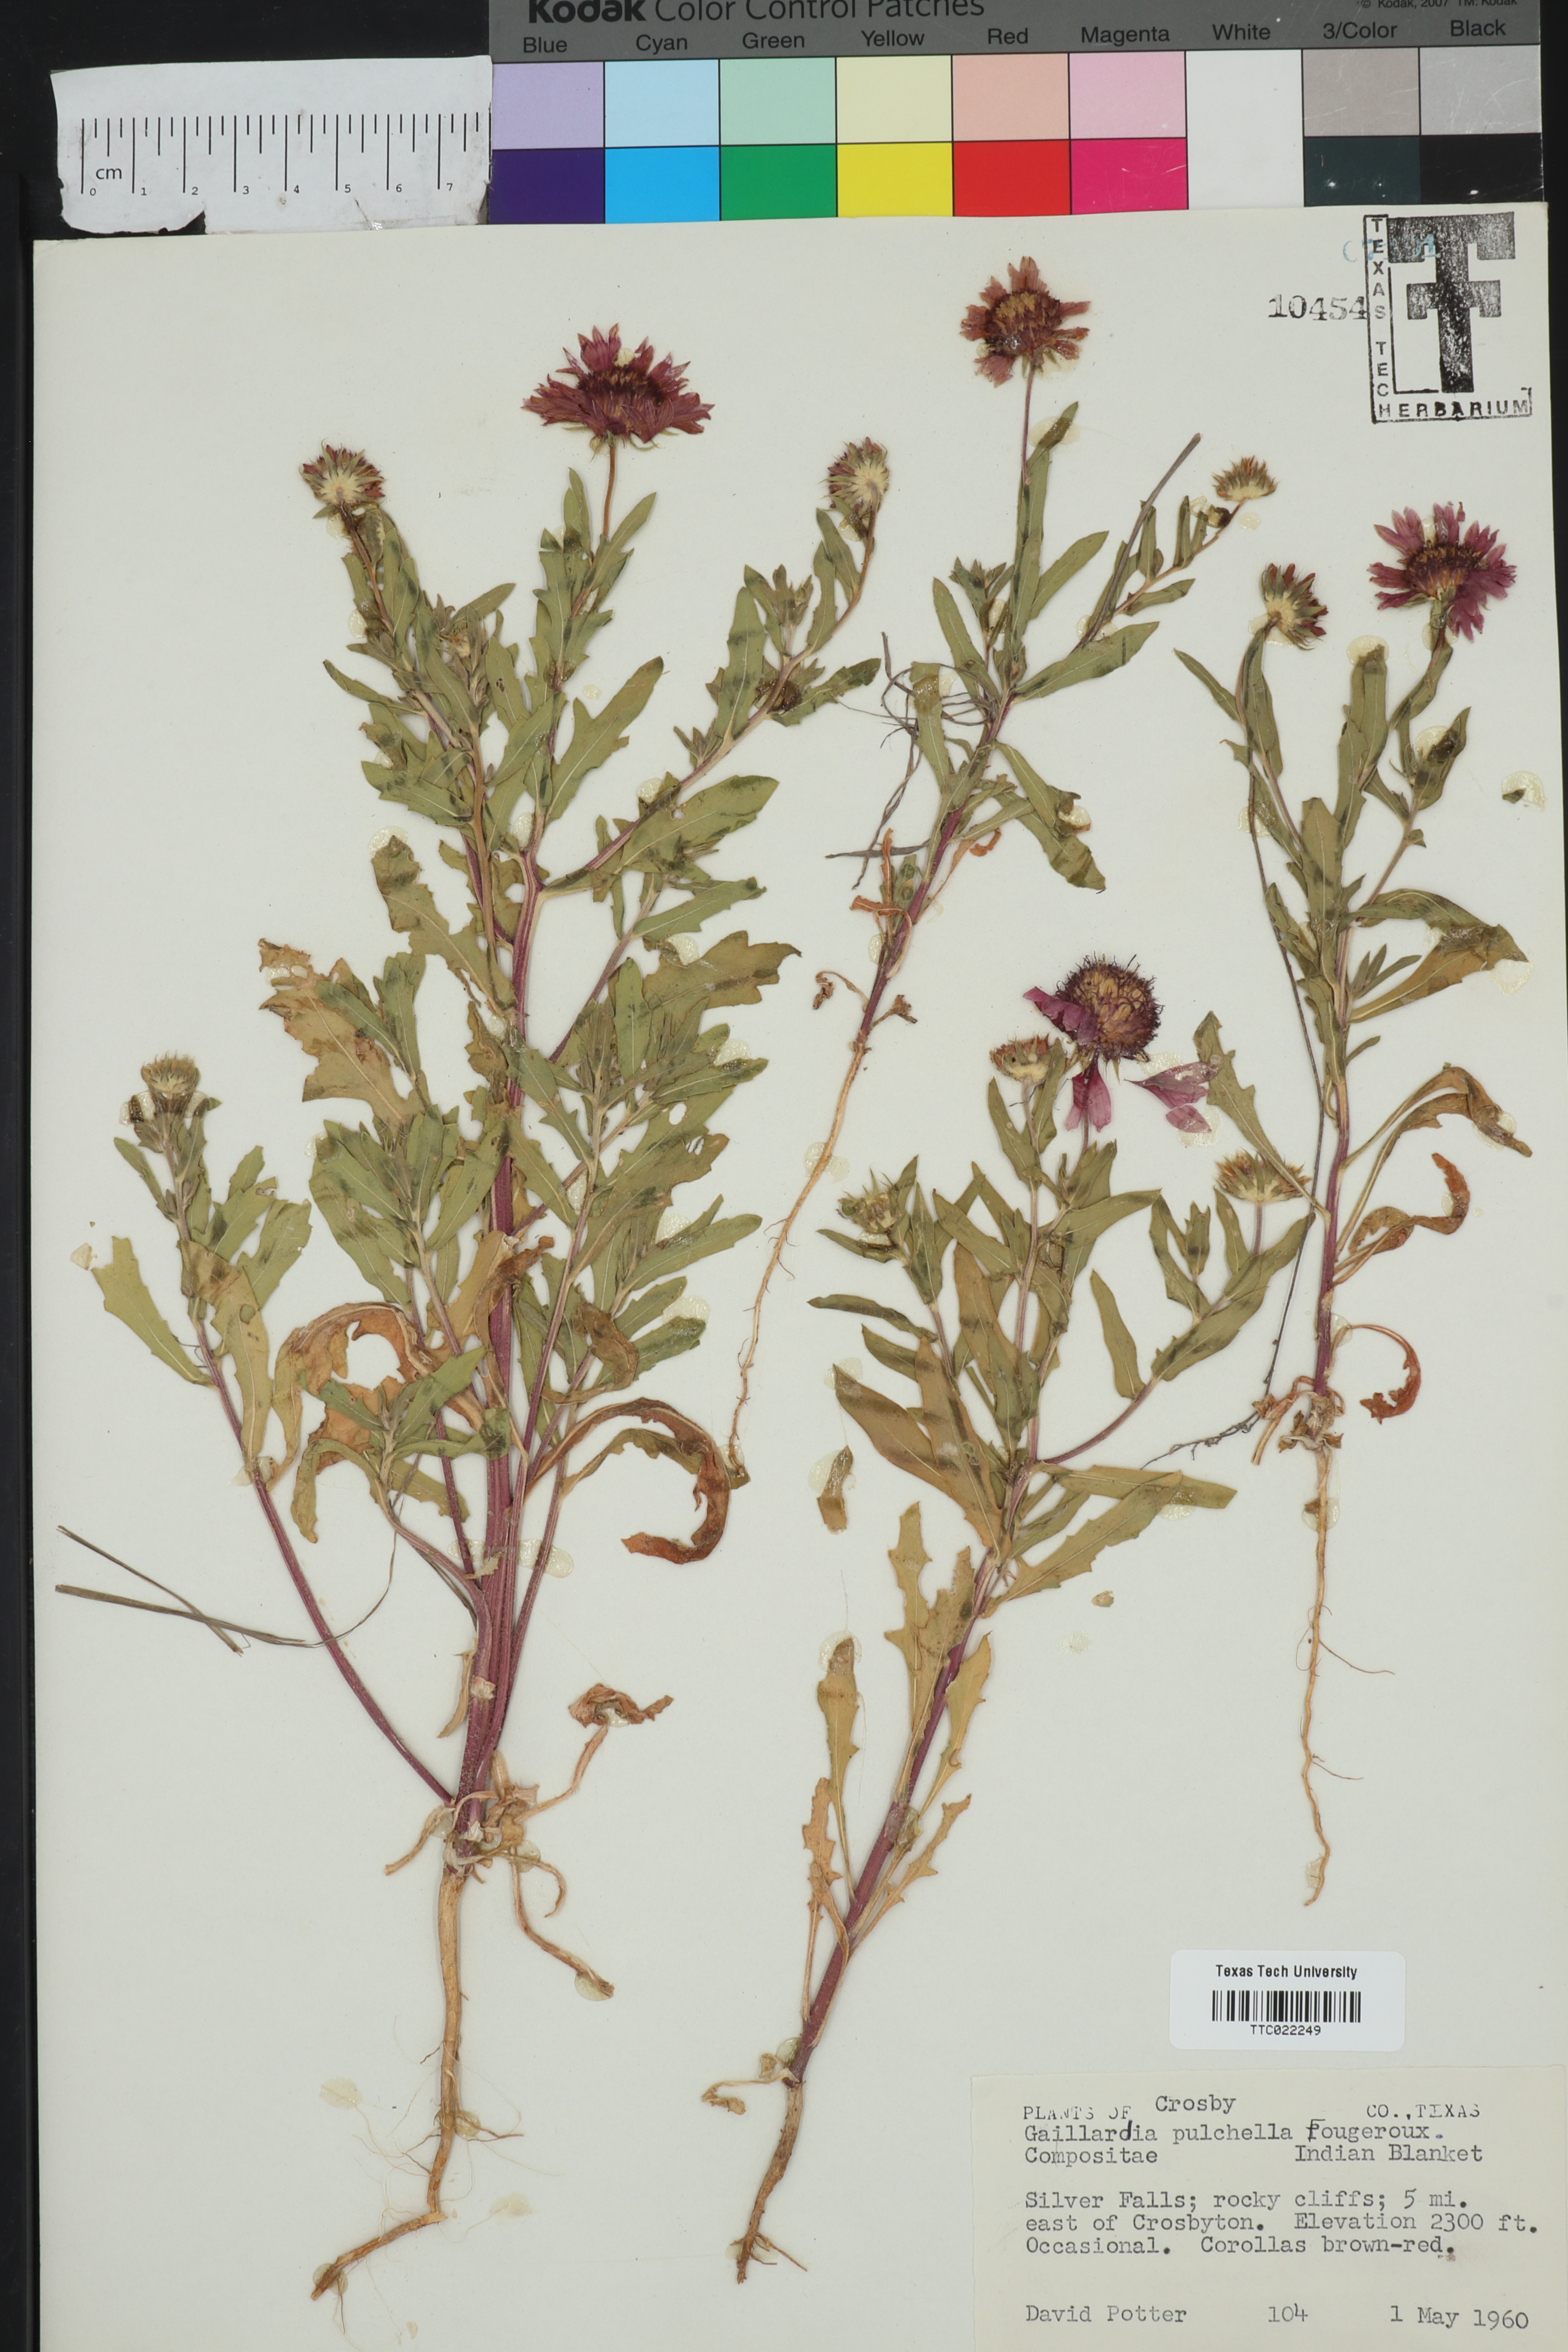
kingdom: Plantae
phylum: Tracheophyta
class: Magnoliopsida
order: Asterales
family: Asteraceae
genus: Gaillardia
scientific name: Gaillardia pulchella
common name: Firewheel
